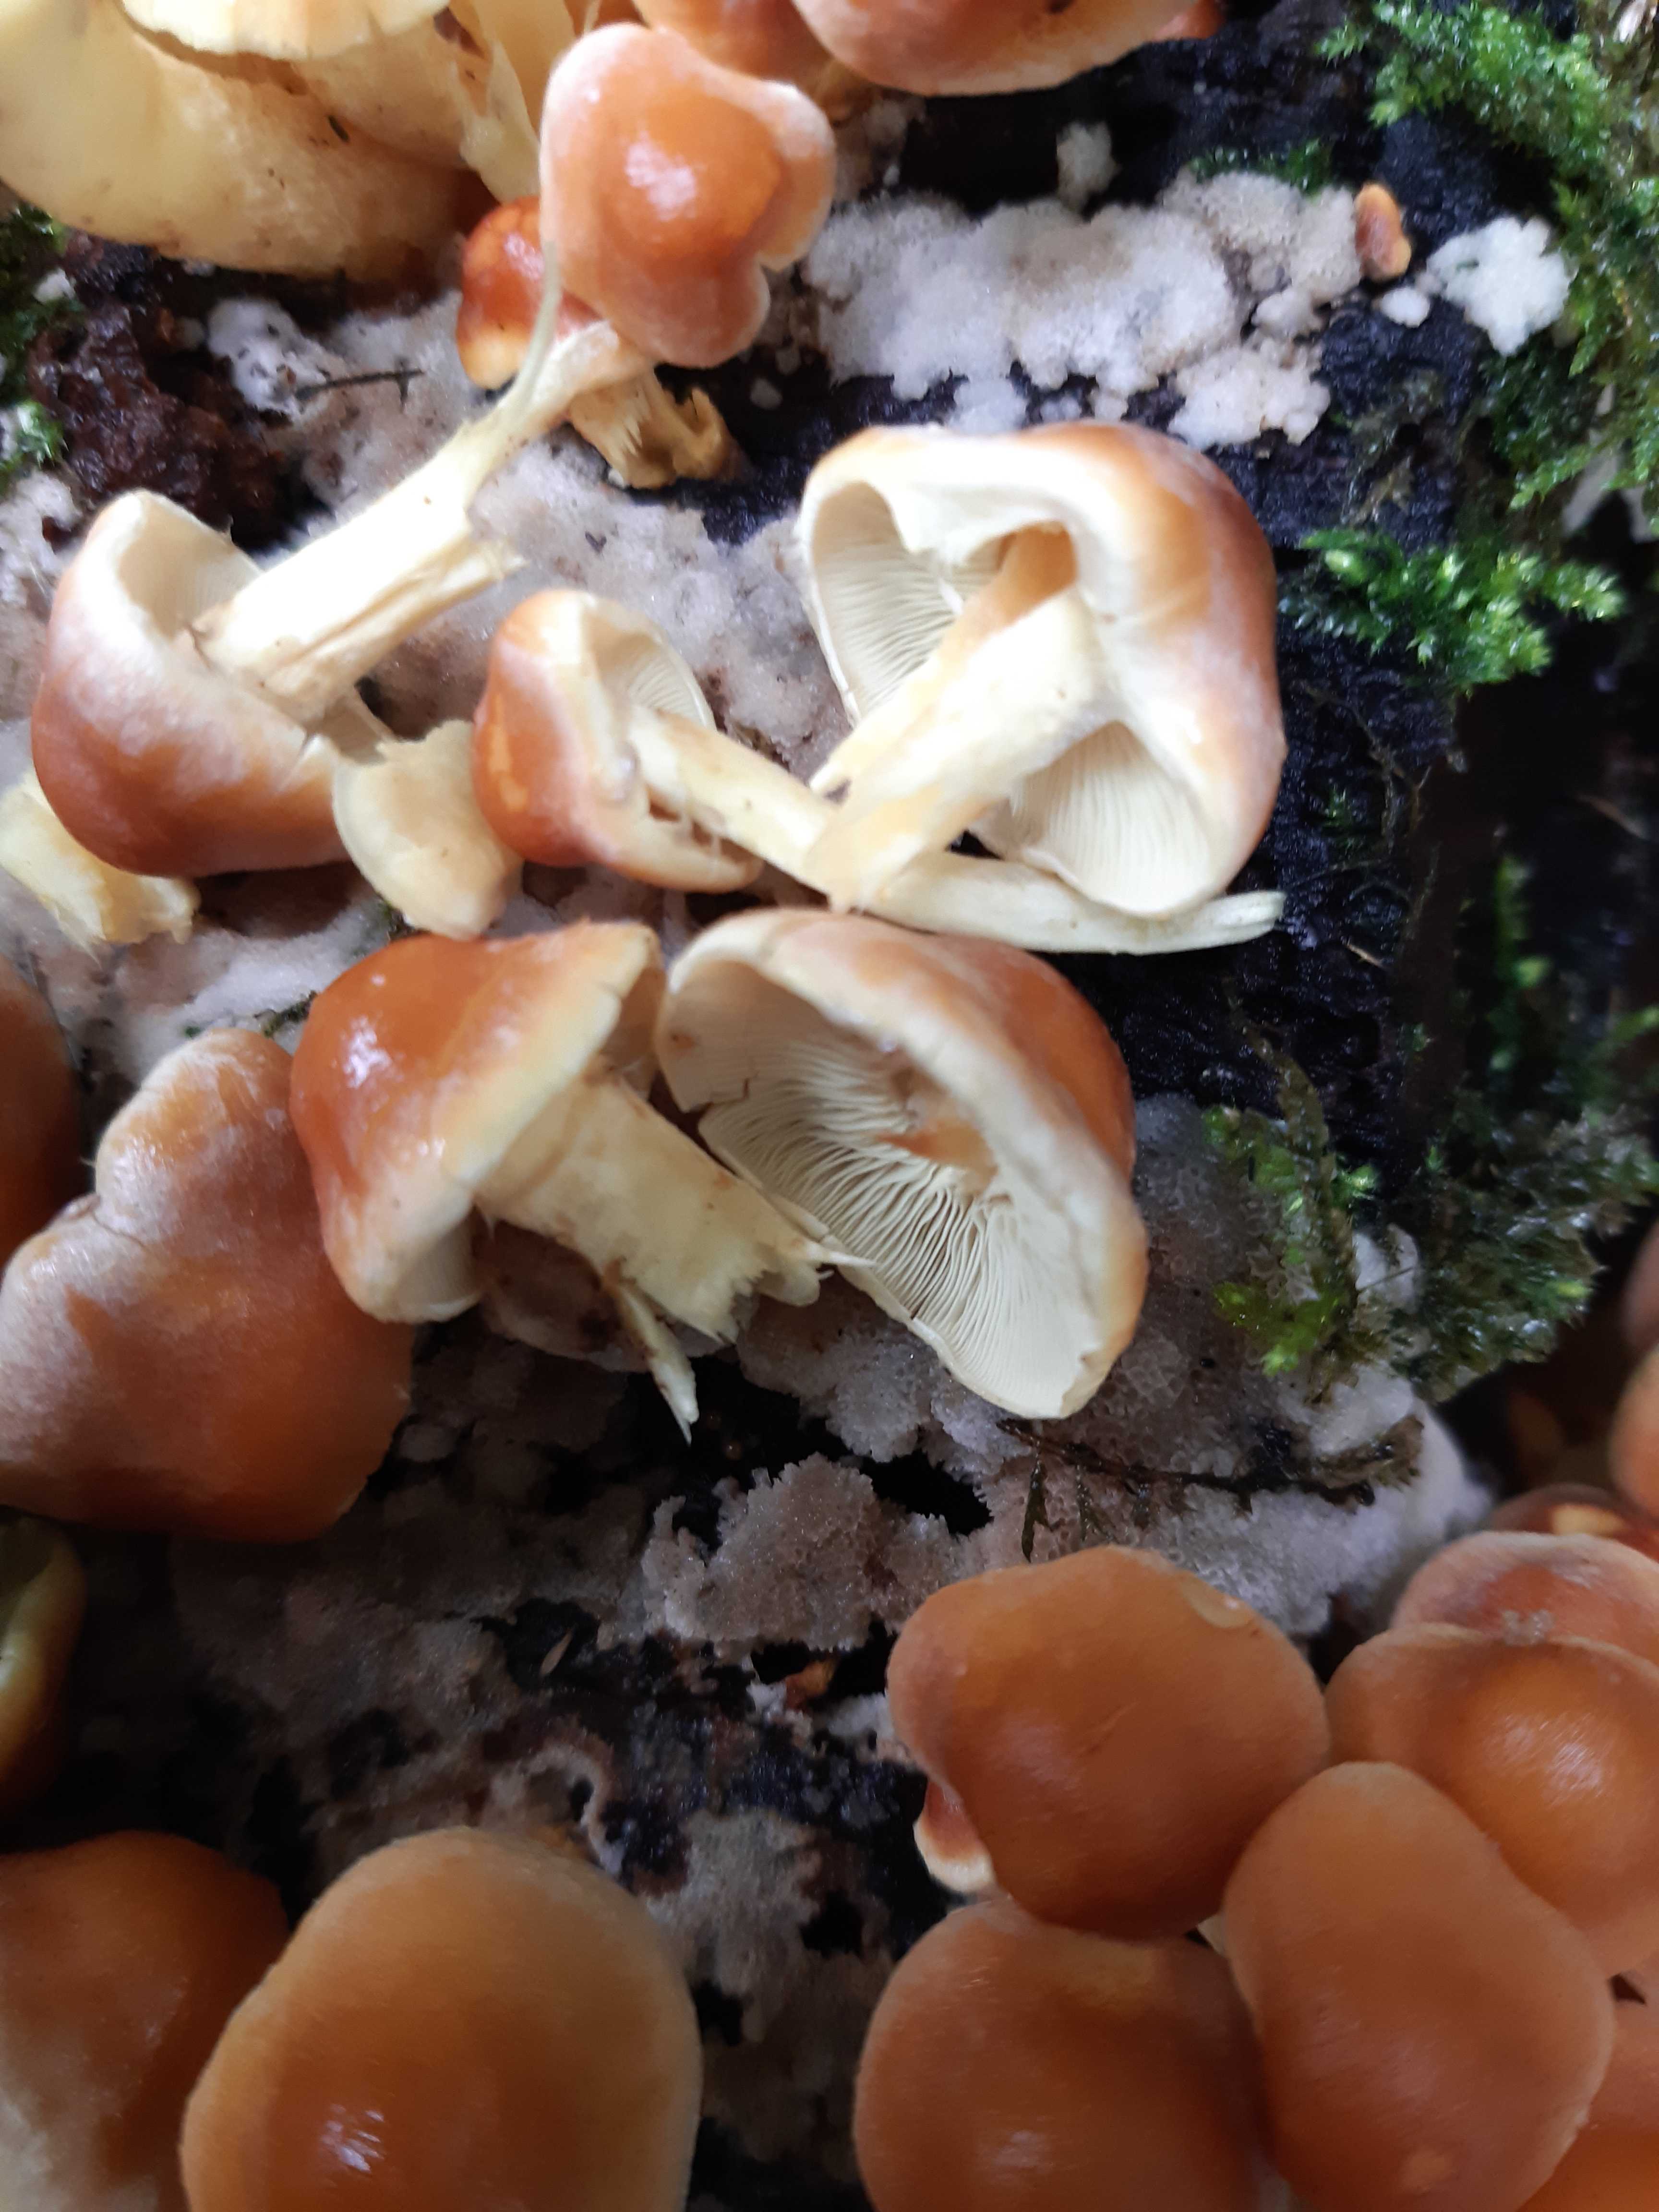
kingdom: Fungi
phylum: Basidiomycota
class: Agaricomycetes
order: Agaricales
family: Strophariaceae
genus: Hypholoma
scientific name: Hypholoma capnoides
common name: gran-svovlhat
